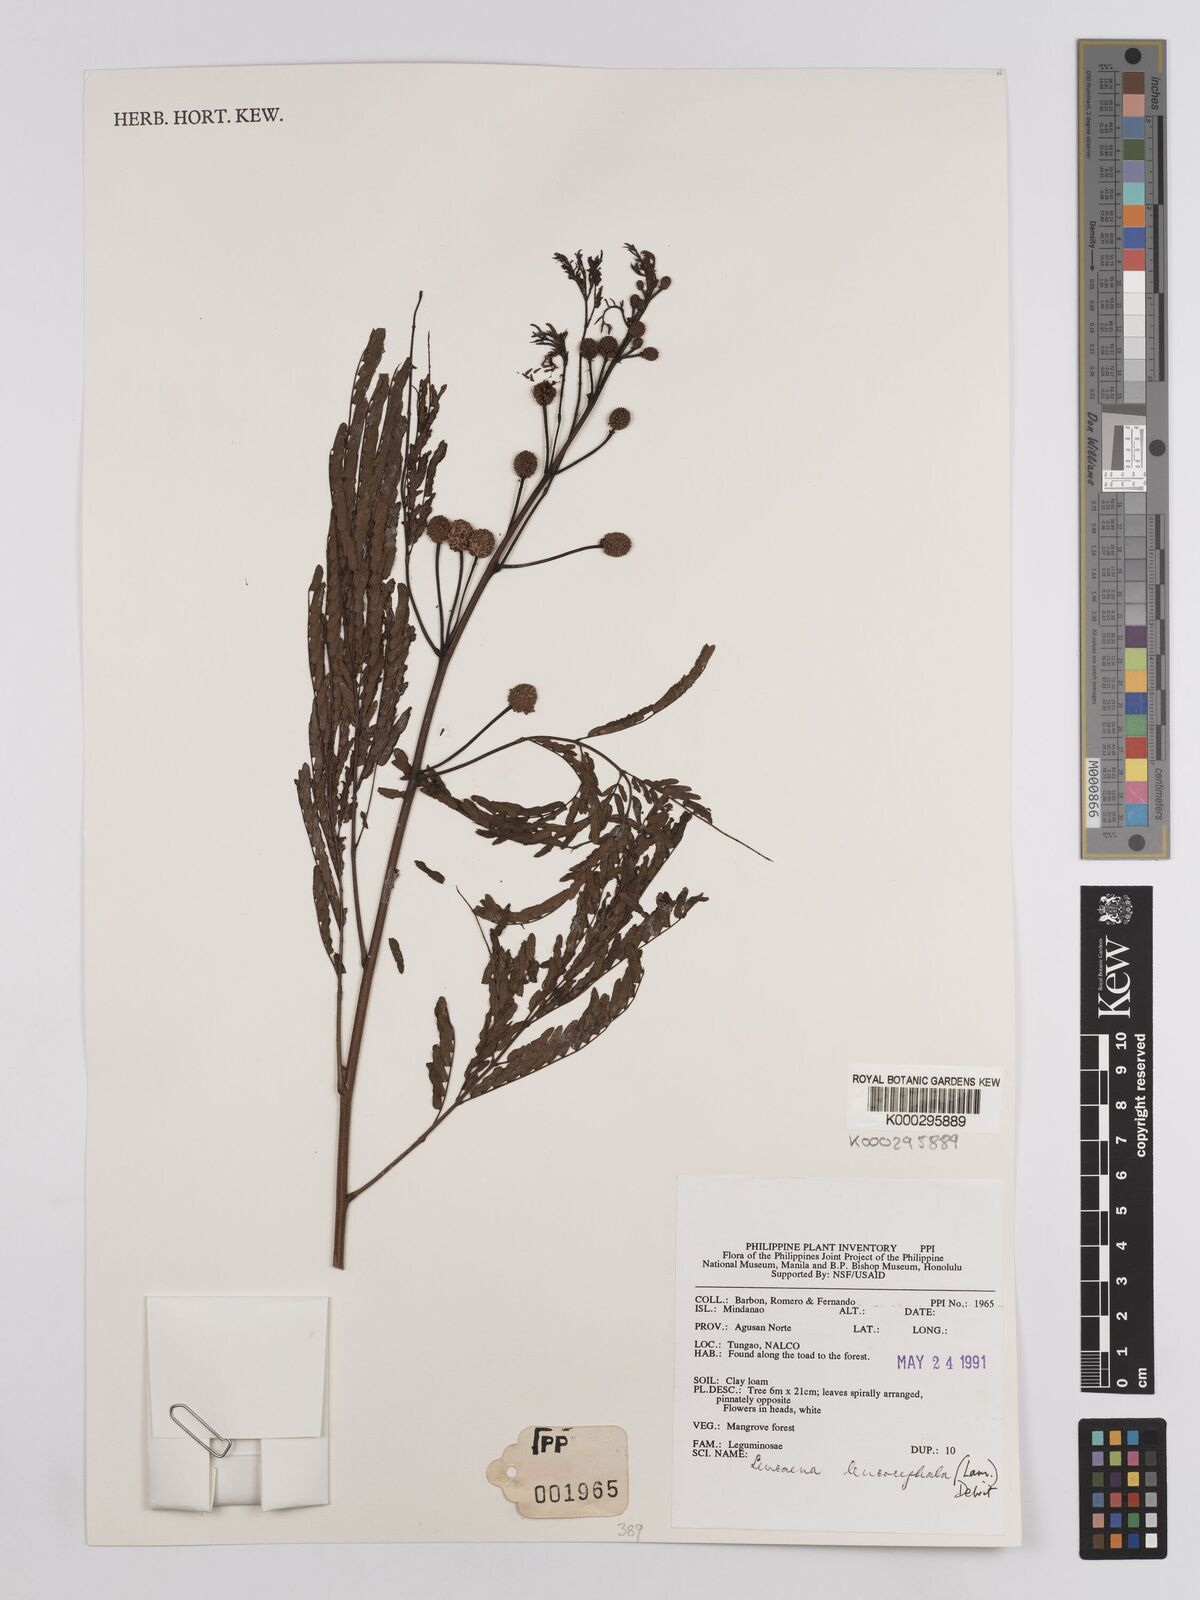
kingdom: Plantae
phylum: Tracheophyta
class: Magnoliopsida
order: Fabales
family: Fabaceae
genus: Leucaena
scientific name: Leucaena leucocephala
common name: White leadtree
